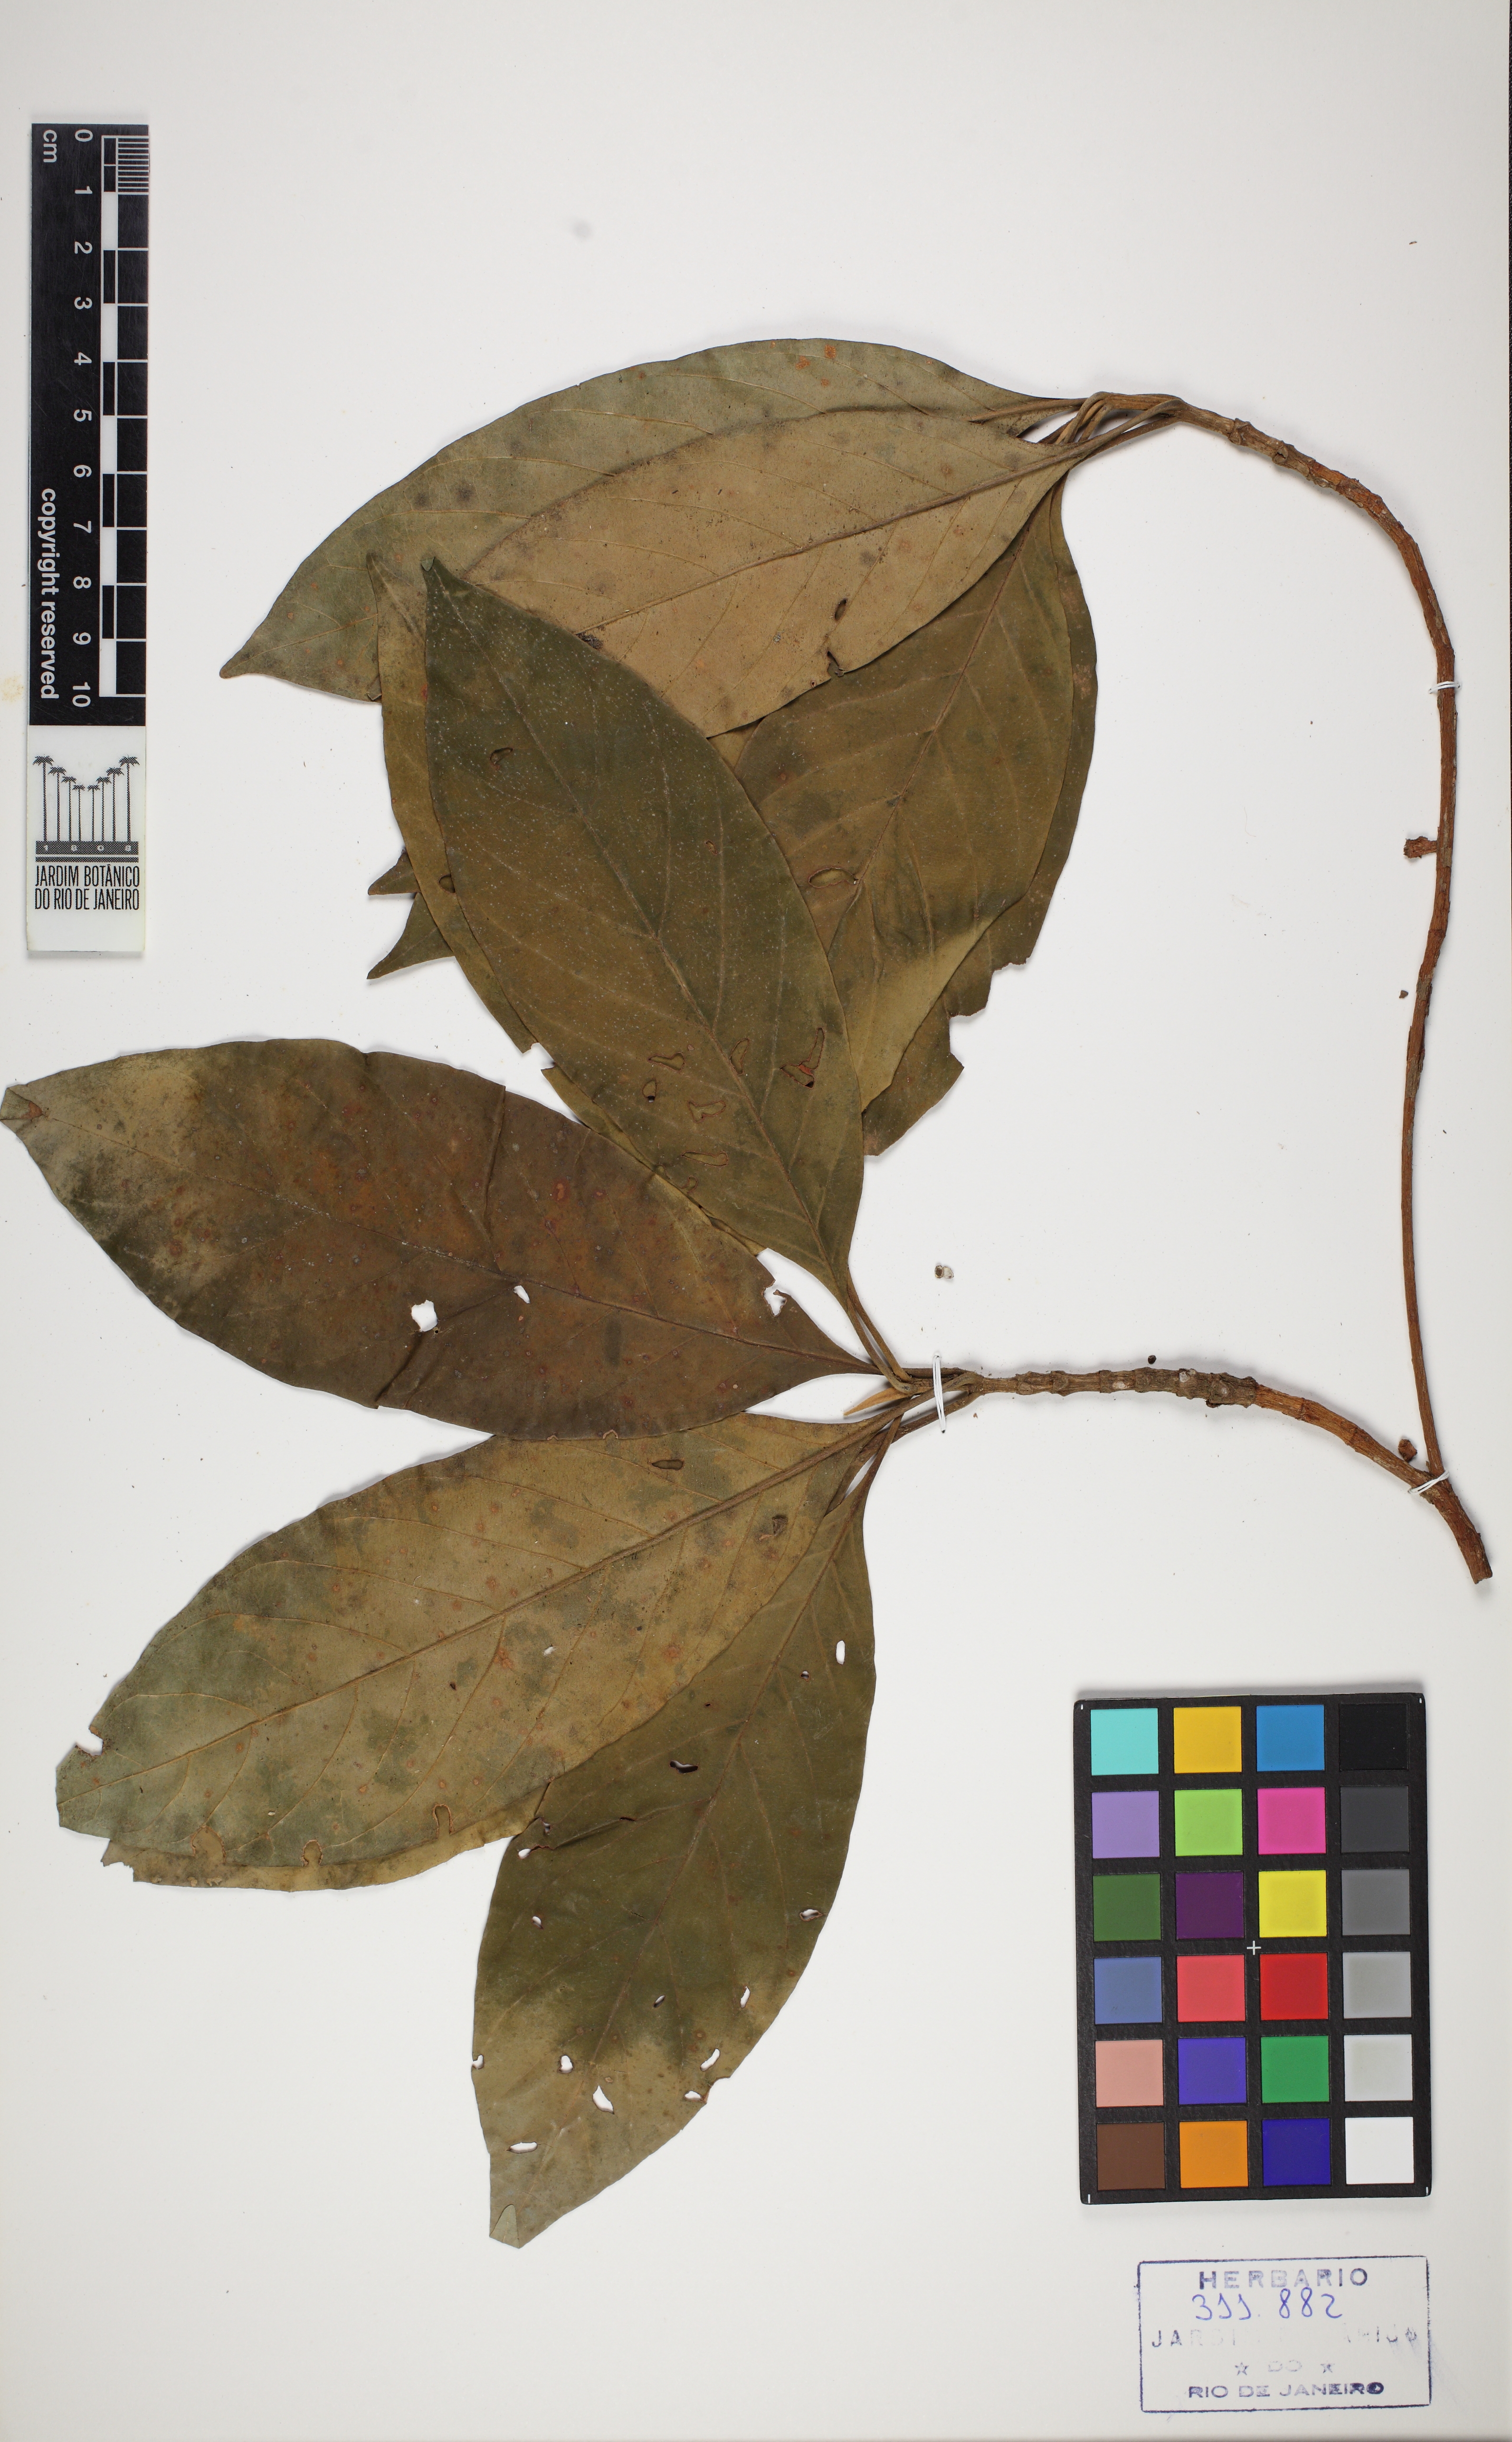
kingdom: Plantae
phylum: Tracheophyta
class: Magnoliopsida
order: Gentianales
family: Rubiaceae
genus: Amaioua
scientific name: Amaioua intermedia
